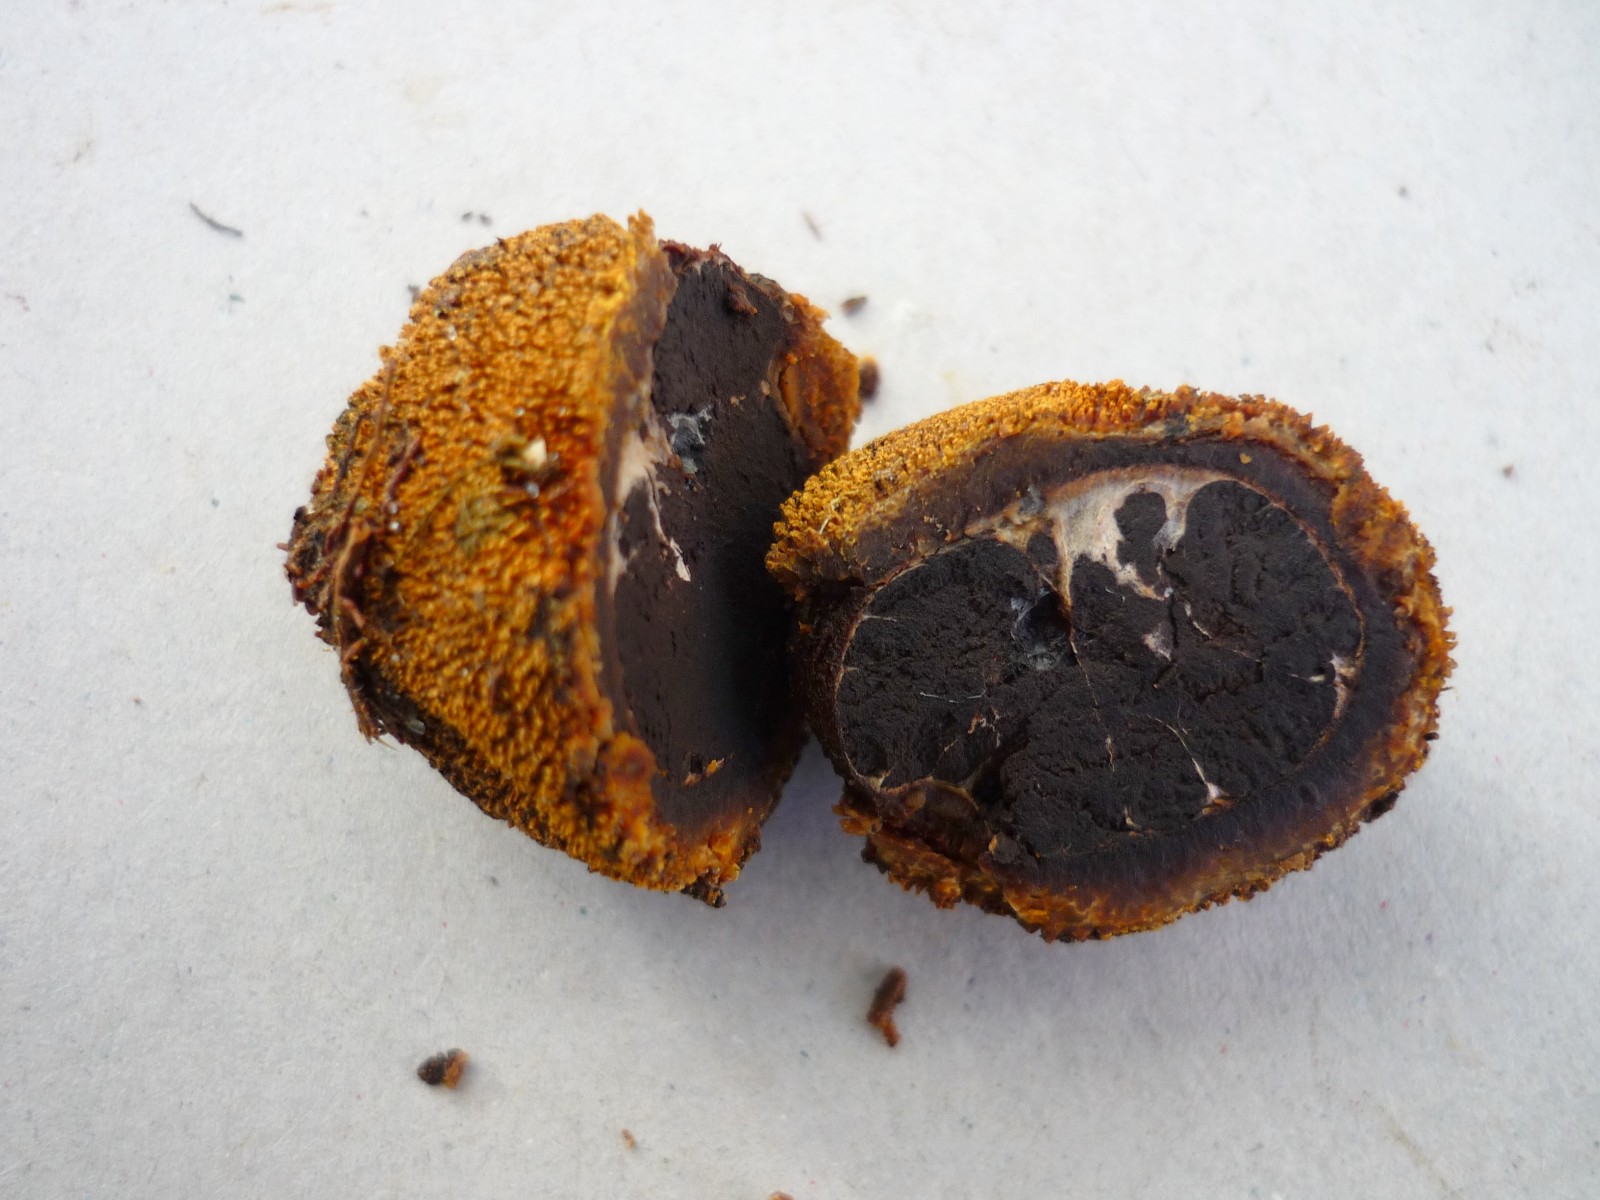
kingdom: Fungi
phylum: Ascomycota
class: Eurotiomycetes
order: Eurotiales
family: Elaphomycetaceae
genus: Elaphomyces
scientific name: Elaphomyces muricatus
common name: vortet hjortetrøffel
